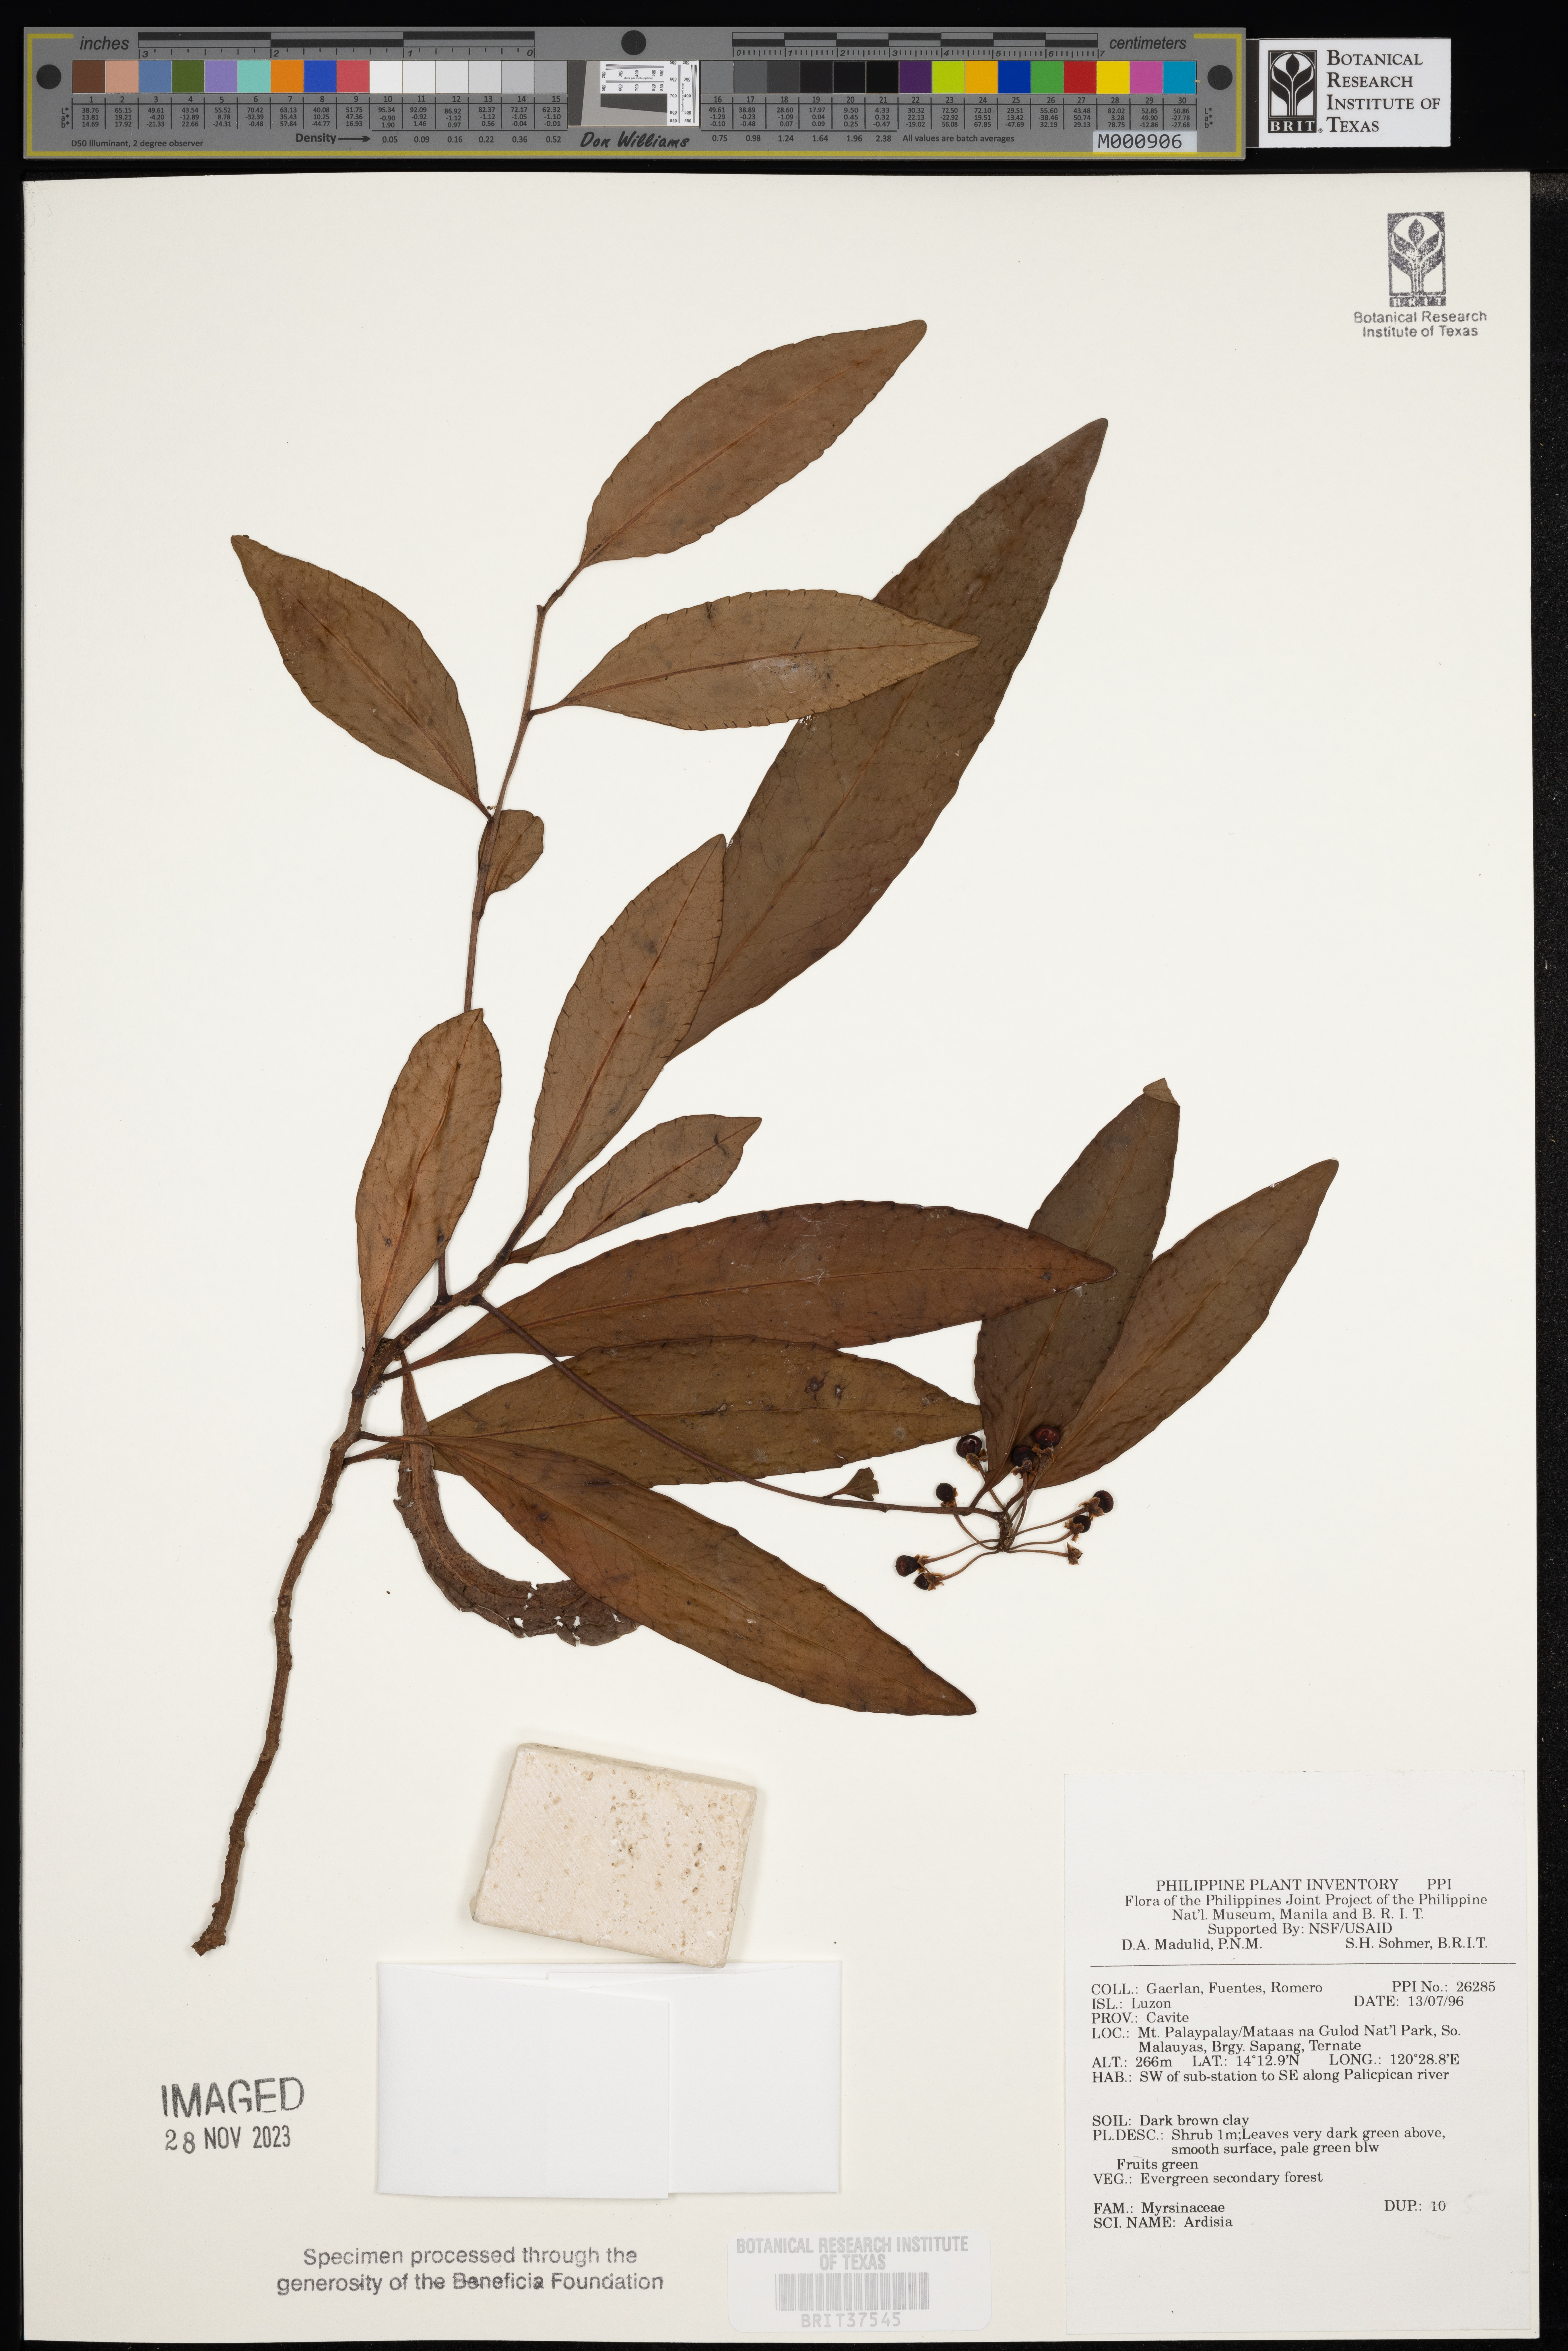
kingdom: Plantae
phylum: Tracheophyta
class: Magnoliopsida
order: Ericales
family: Primulaceae
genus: Ardisia
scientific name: Ardisia
